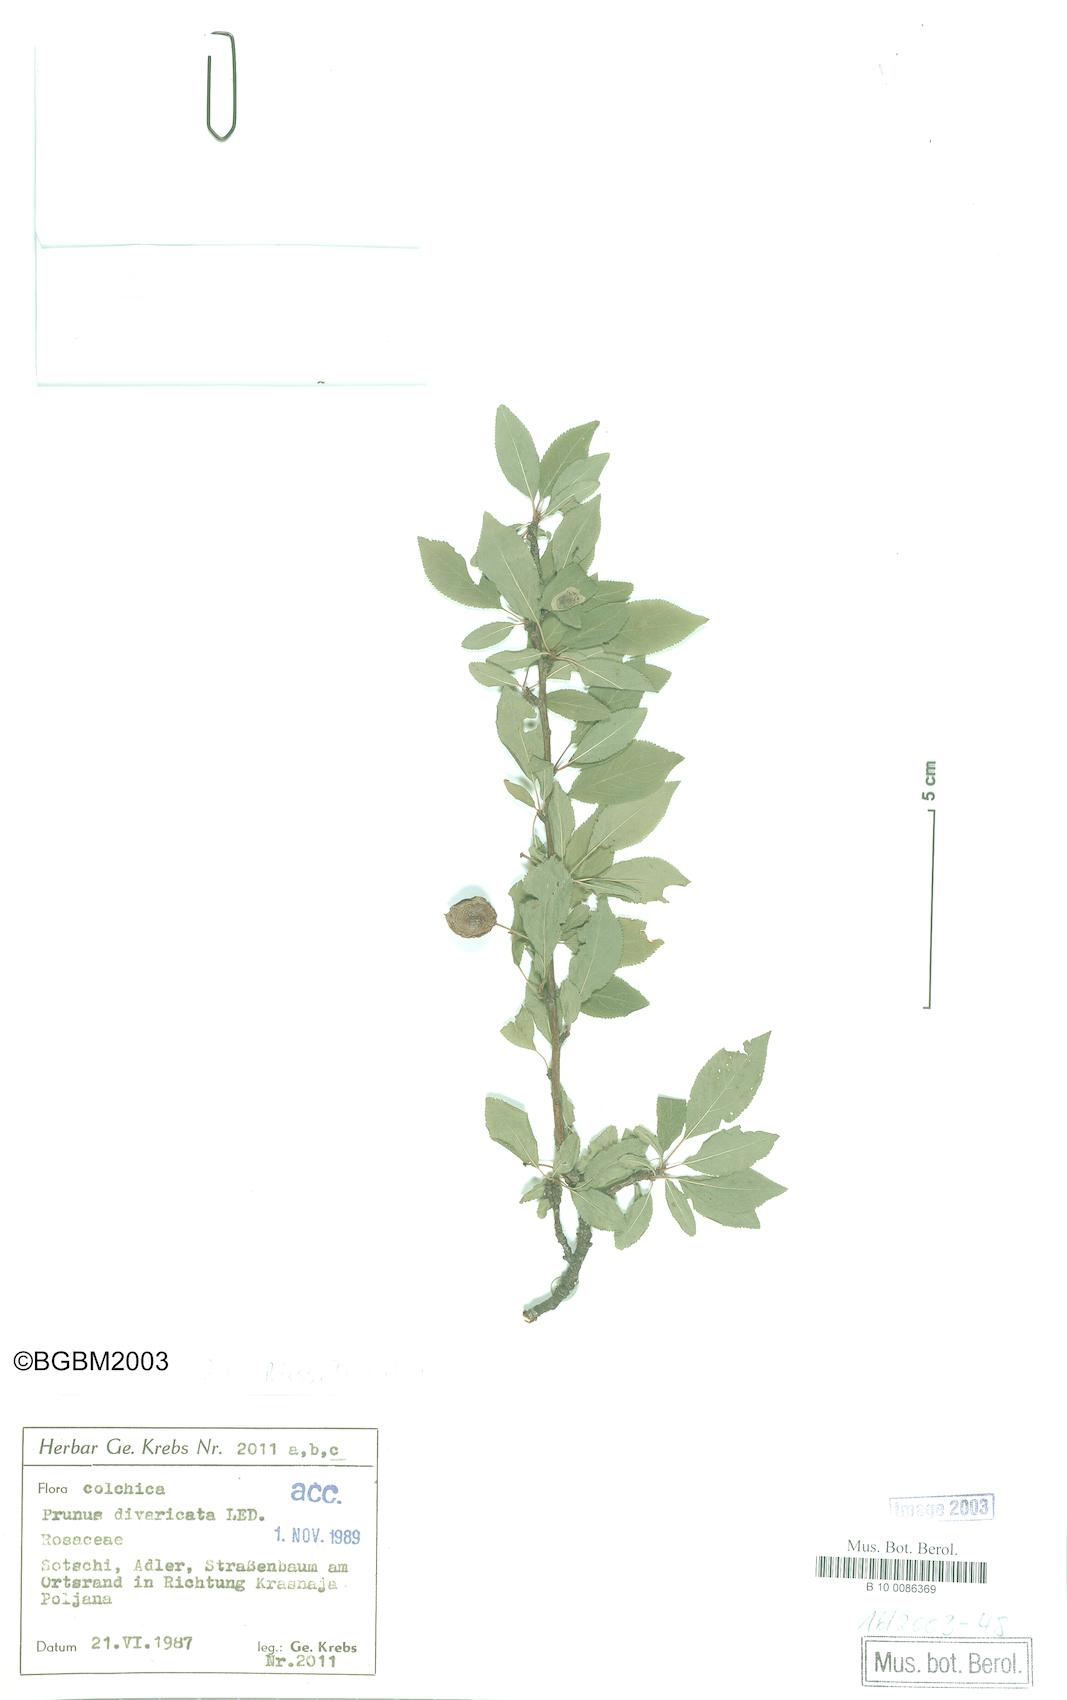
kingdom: Plantae
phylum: Tracheophyta
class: Magnoliopsida
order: Rosales
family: Rosaceae
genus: Prunus
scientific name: Prunus cerasifera
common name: Cherry plum
